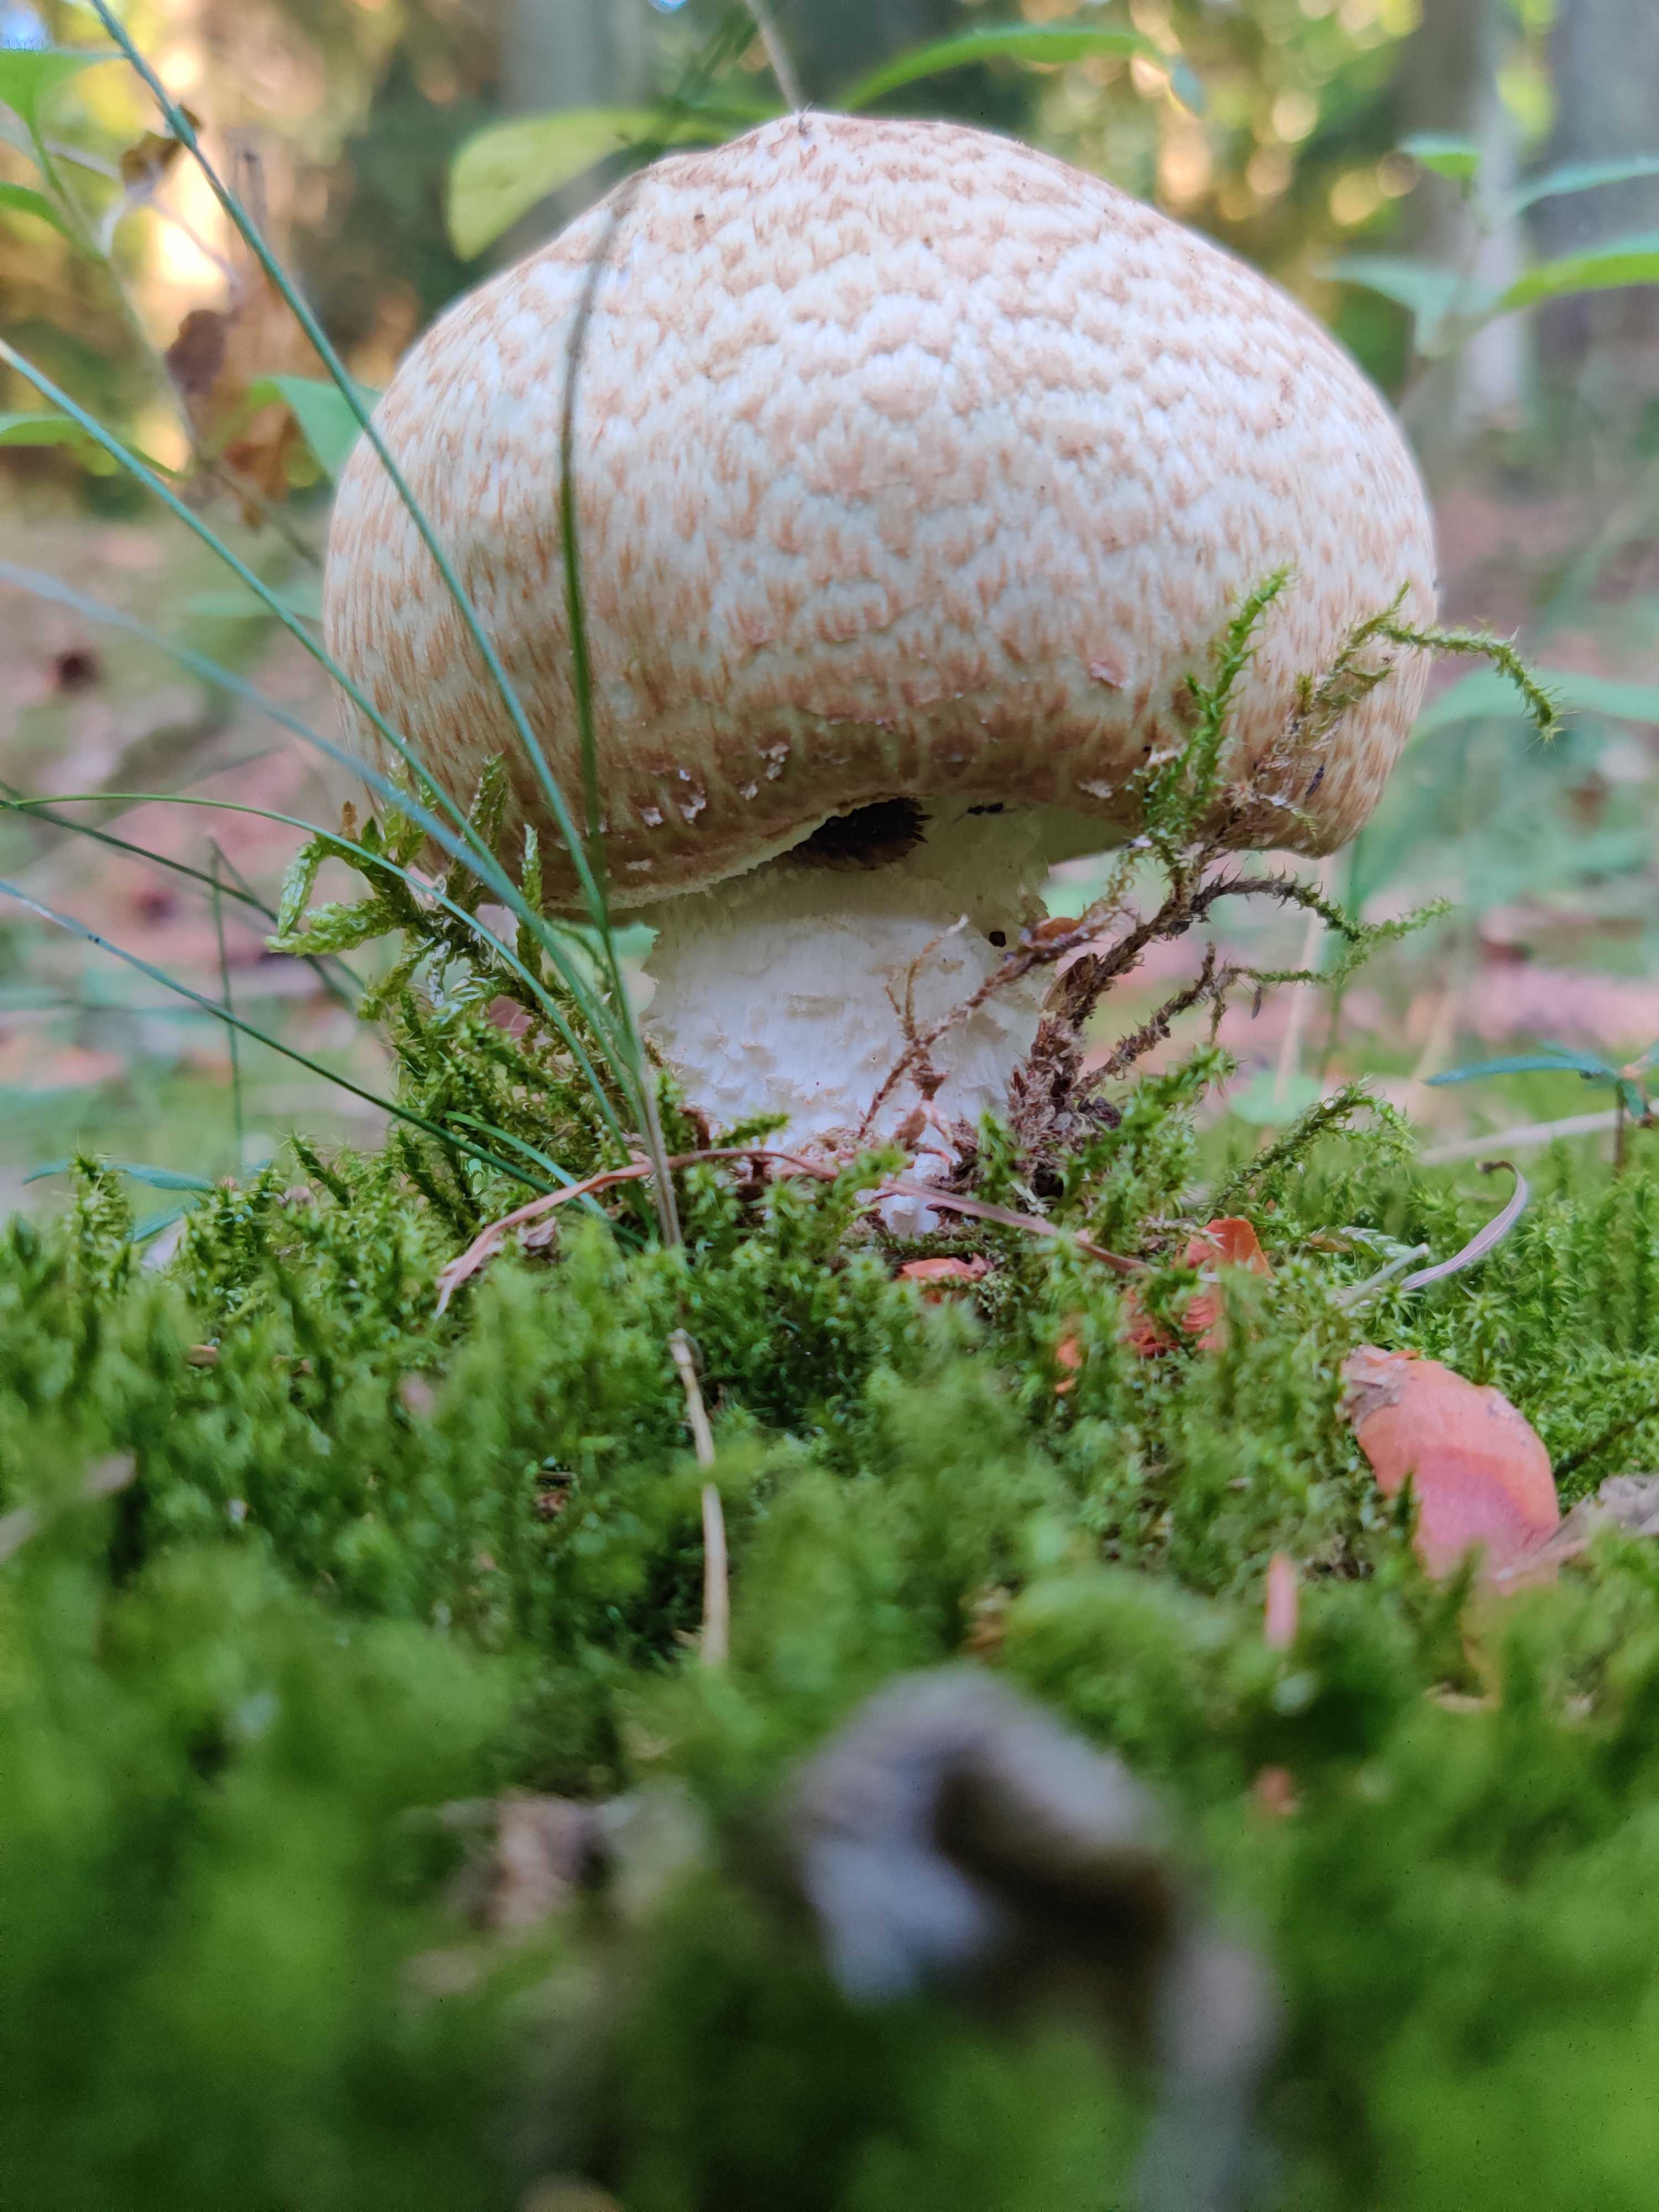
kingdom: Fungi
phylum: Basidiomycota
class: Agaricomycetes
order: Agaricales
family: Agaricaceae
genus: Agaricus
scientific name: Agaricus augustus
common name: prægtig champignon
